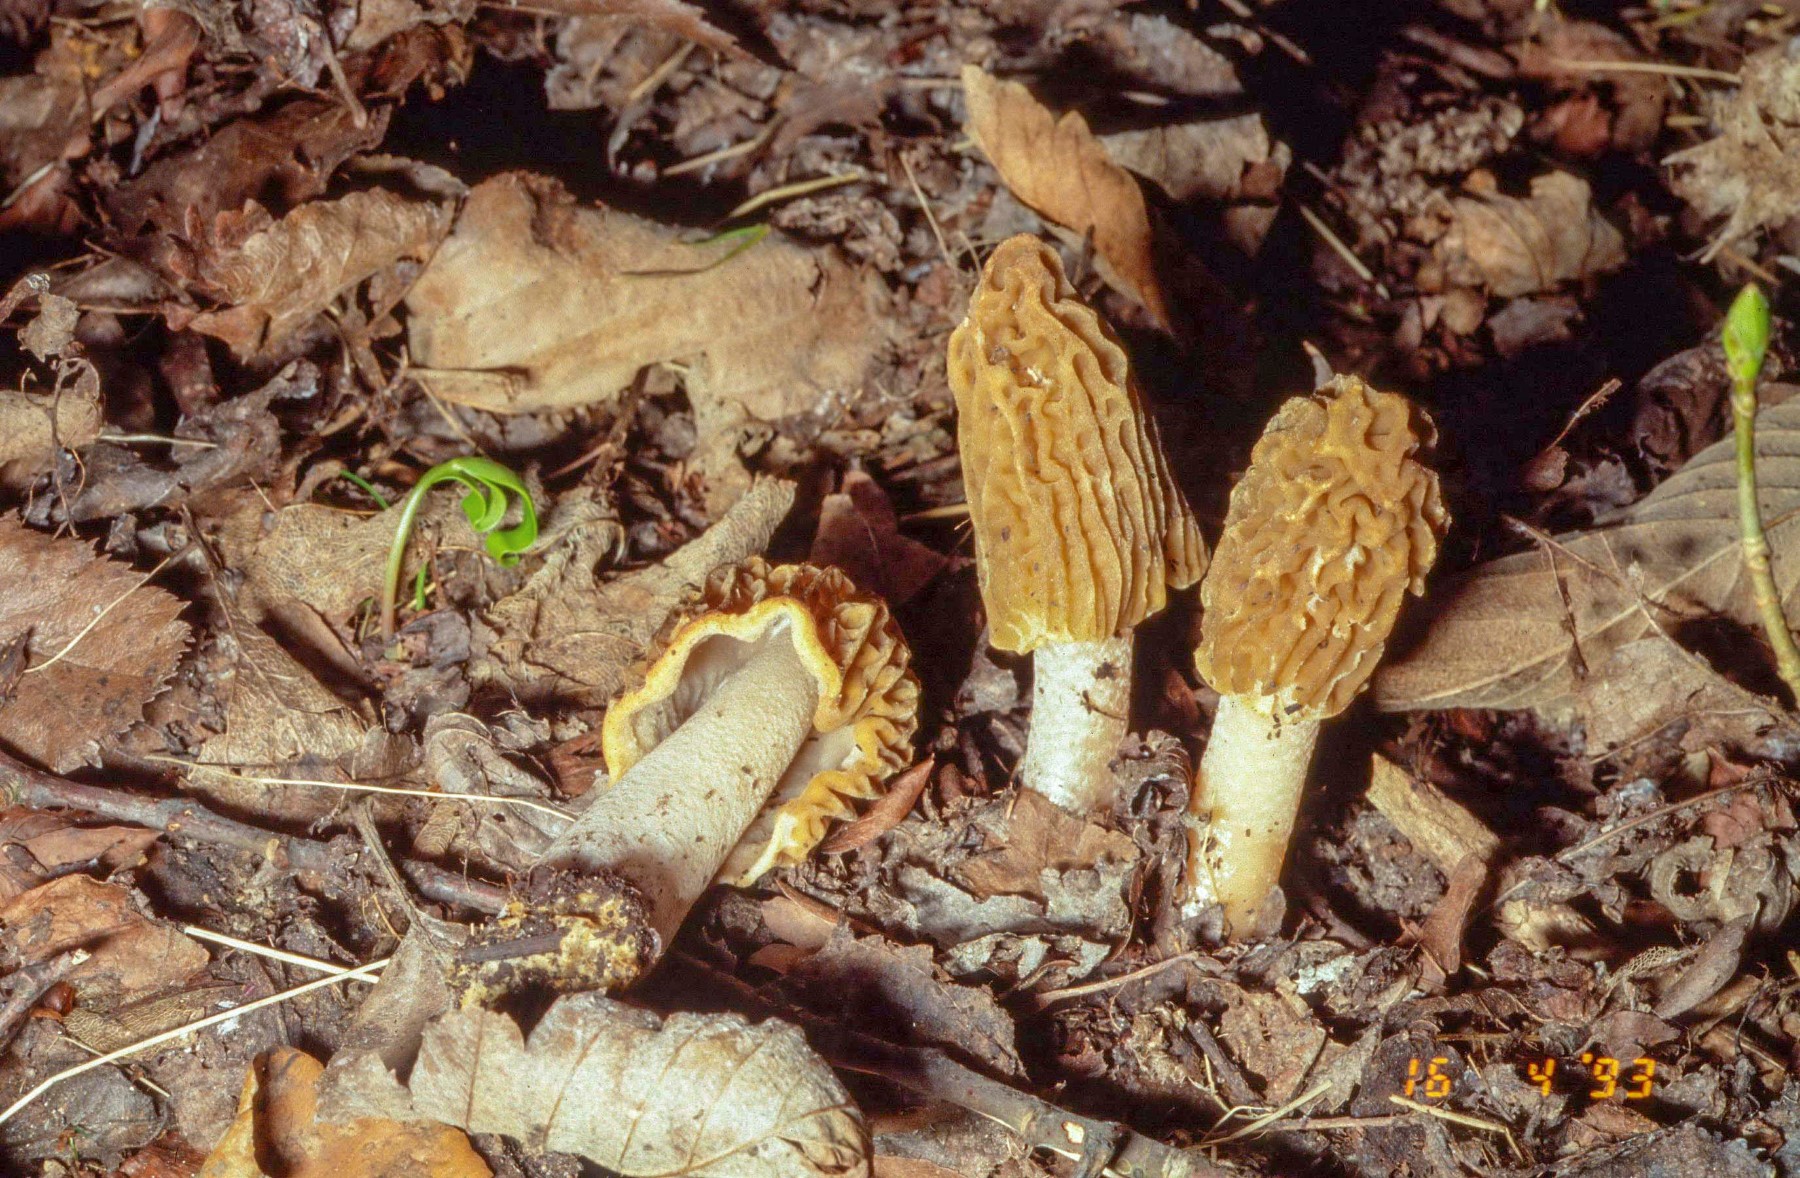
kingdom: Fungi
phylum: Ascomycota
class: Pezizomycetes
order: Pezizales
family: Morchellaceae
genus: Verpa
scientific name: Verpa bohemica
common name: rynket klokkemorkel
